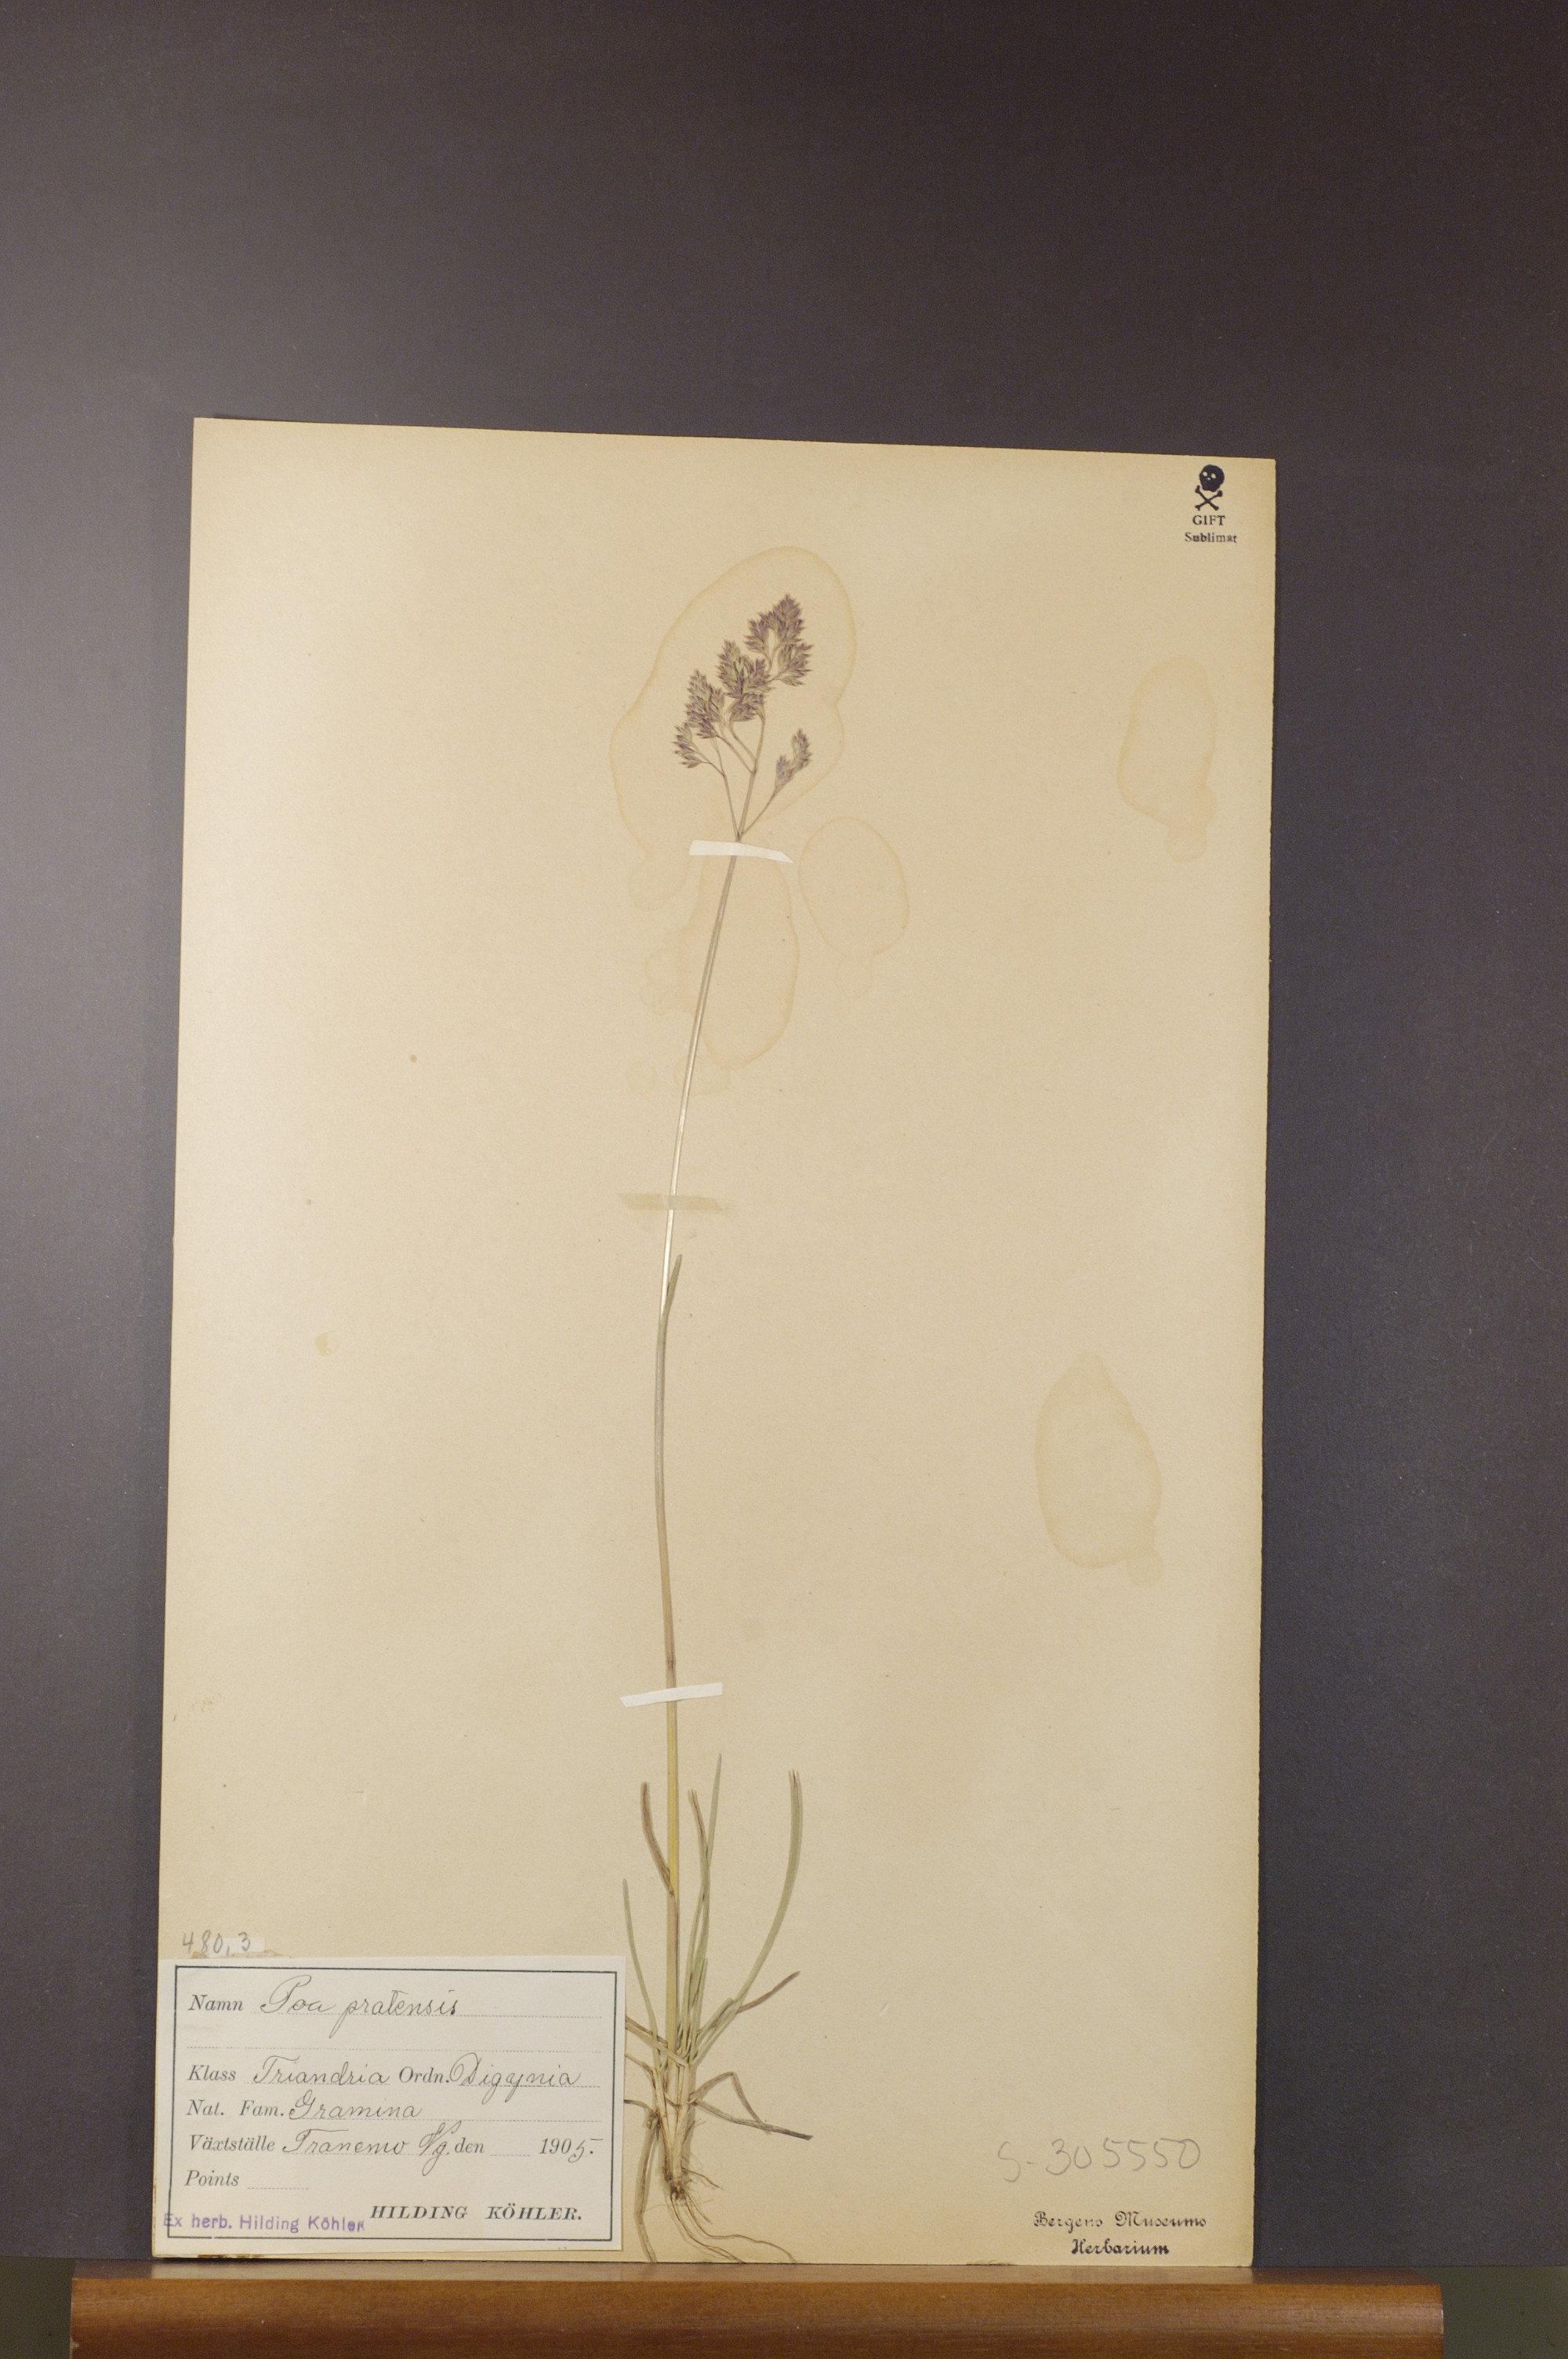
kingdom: Plantae
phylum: Tracheophyta
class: Liliopsida
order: Poales
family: Poaceae
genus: Poa
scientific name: Poa pratensis
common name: Kentucky bluegrass
